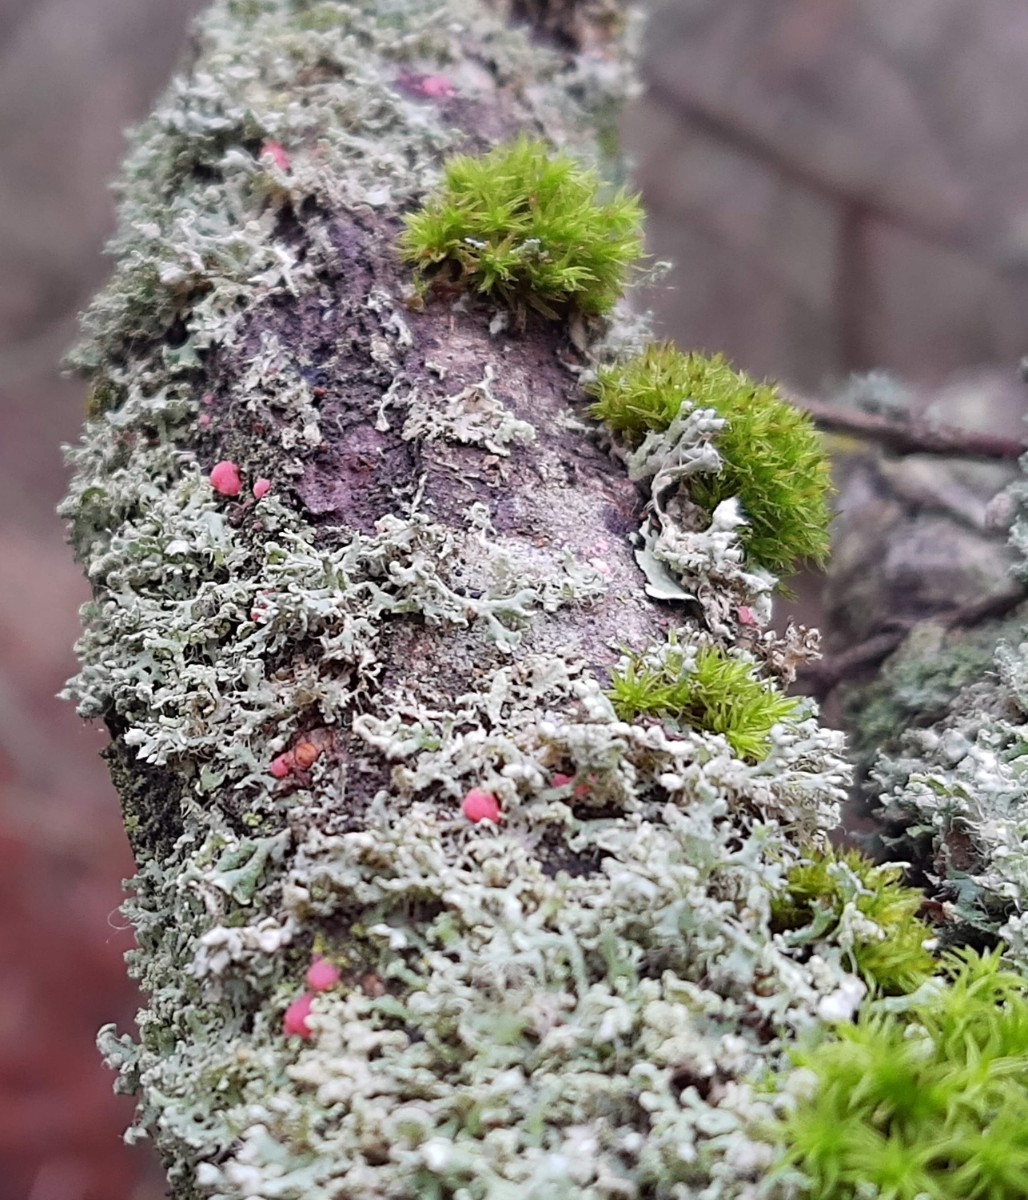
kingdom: Fungi
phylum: Ascomycota
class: Sordariomycetes
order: Hypocreales
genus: Illosporiopsis
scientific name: Illosporiopsis christiansenii
